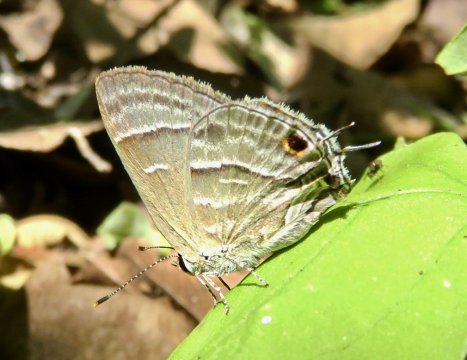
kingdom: Animalia
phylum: Arthropoda
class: Insecta
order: Lepidoptera
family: Lycaenidae
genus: Strymon
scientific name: Strymon
